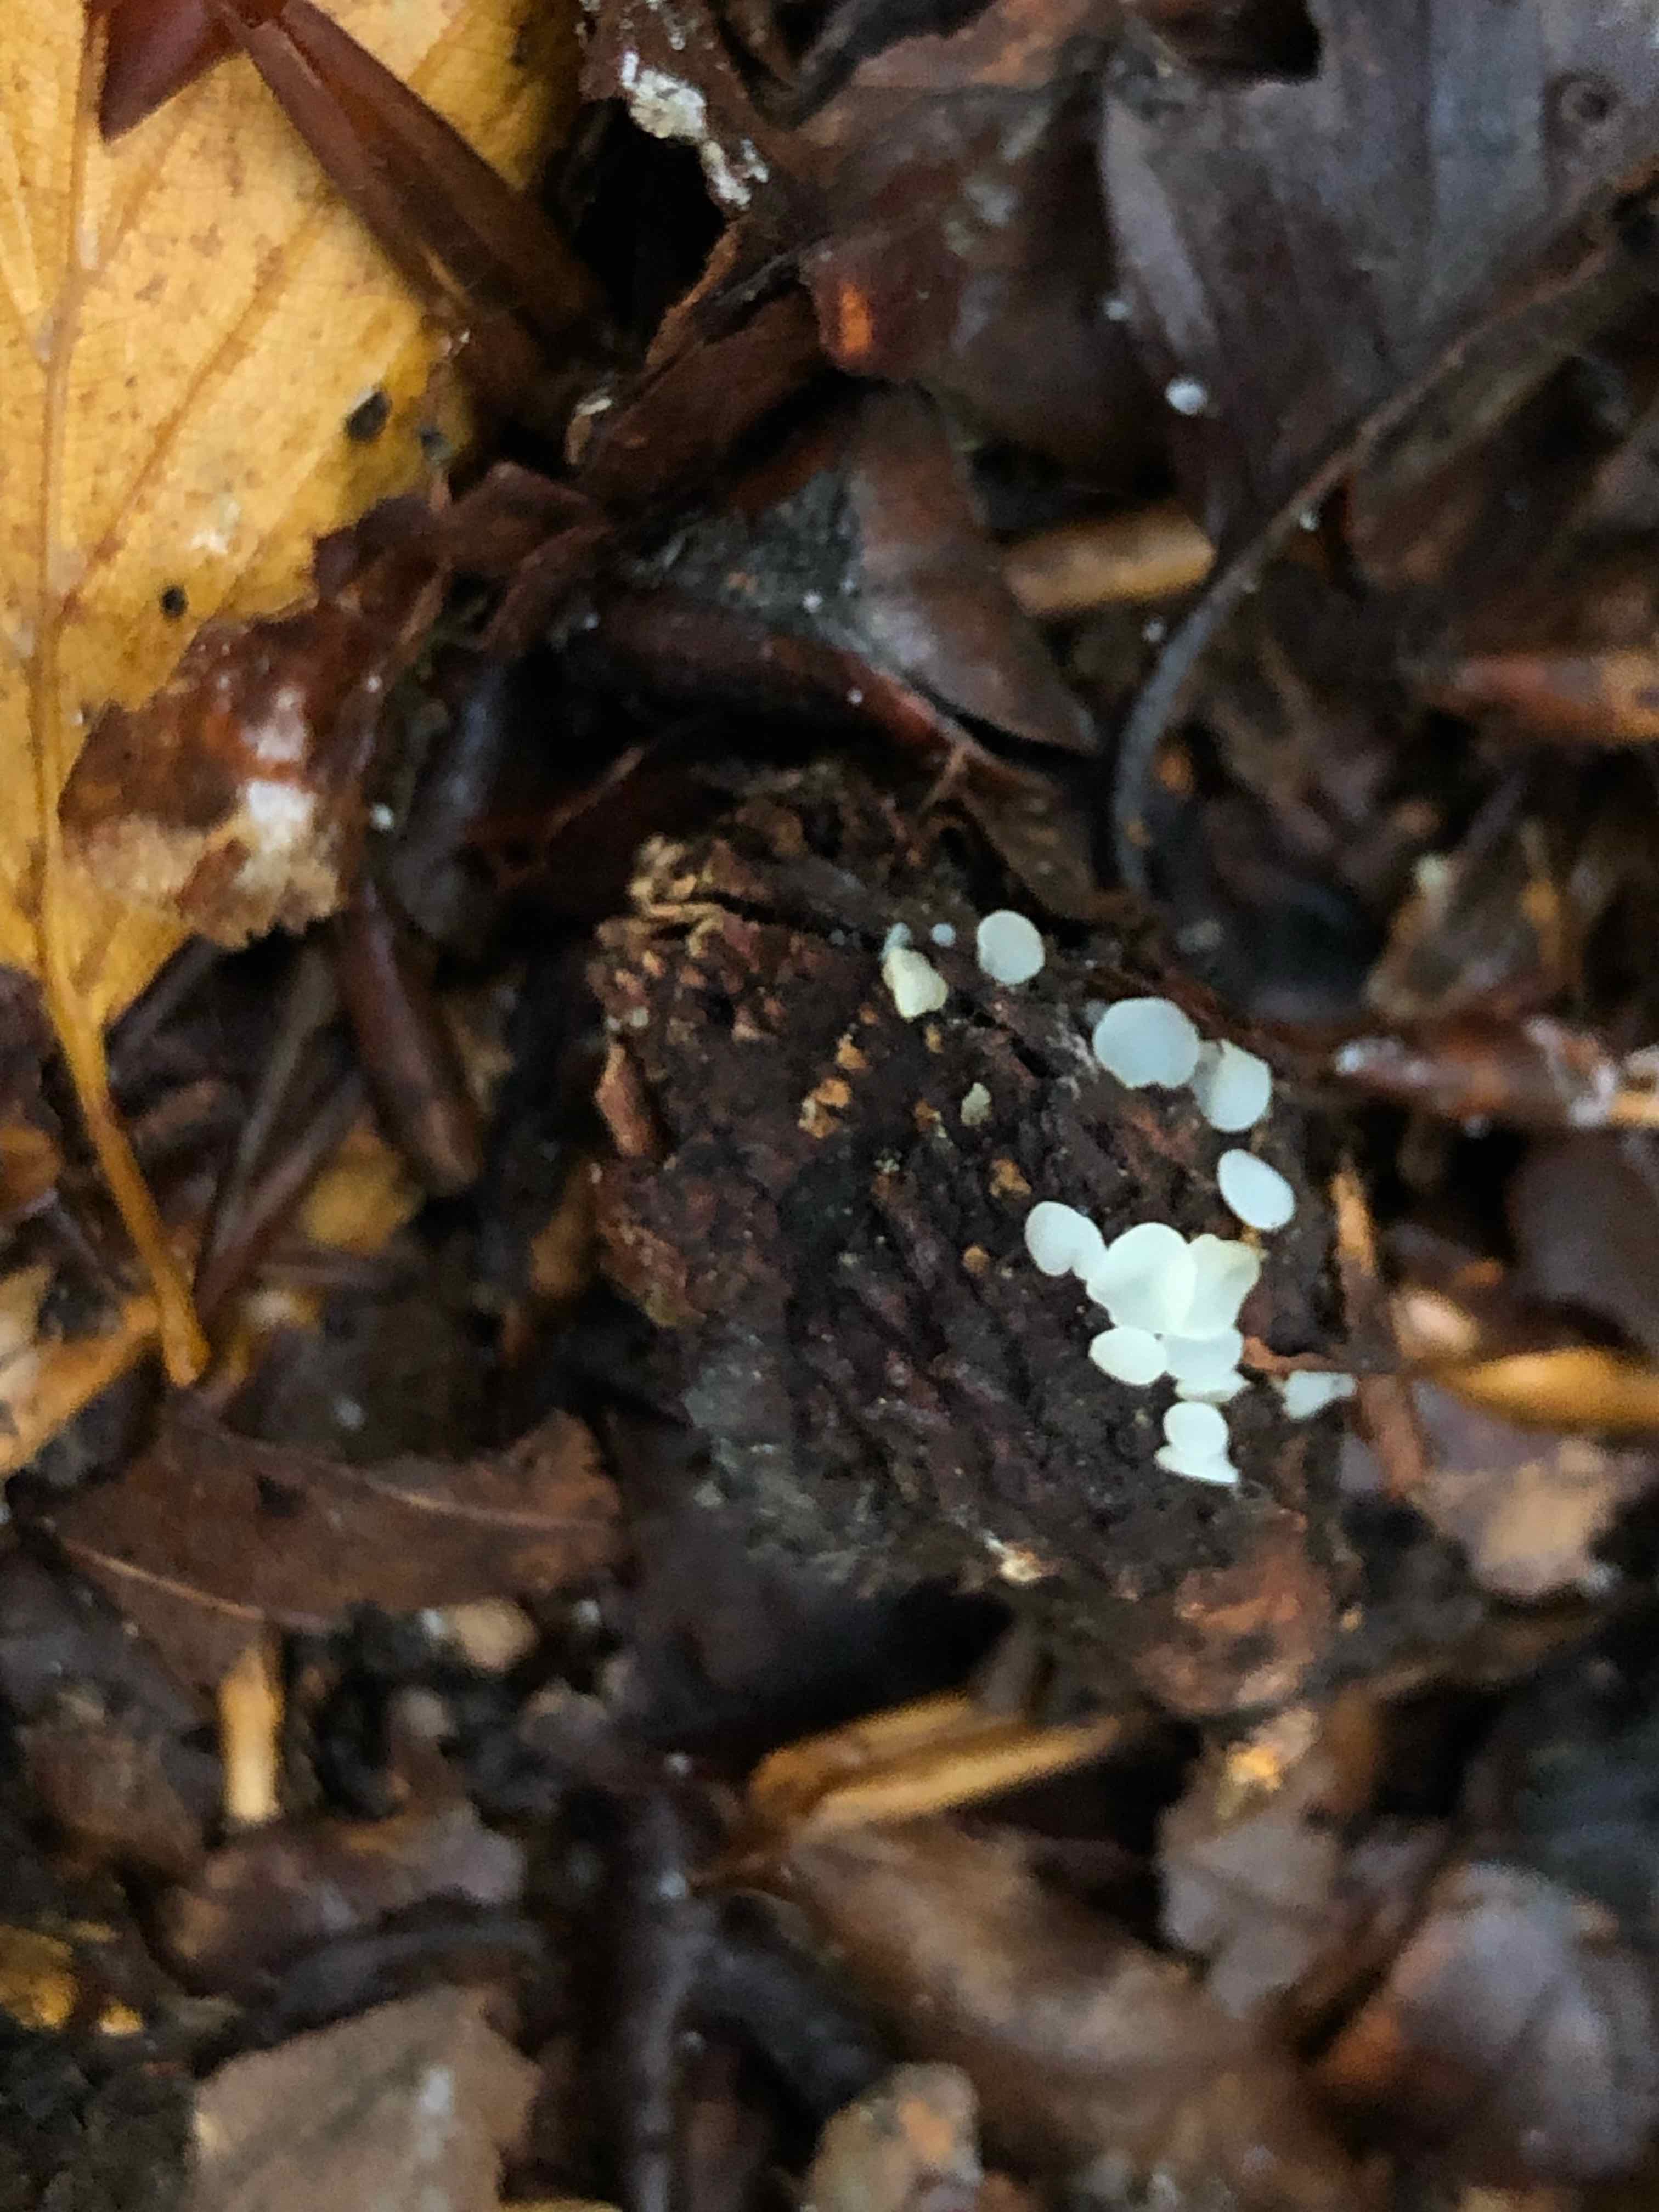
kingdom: Fungi
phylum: Ascomycota
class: Leotiomycetes
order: Helotiales
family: Helotiaceae
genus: Hymenoscyphus
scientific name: Hymenoscyphus fagineus
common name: vellugtende stilkskive
